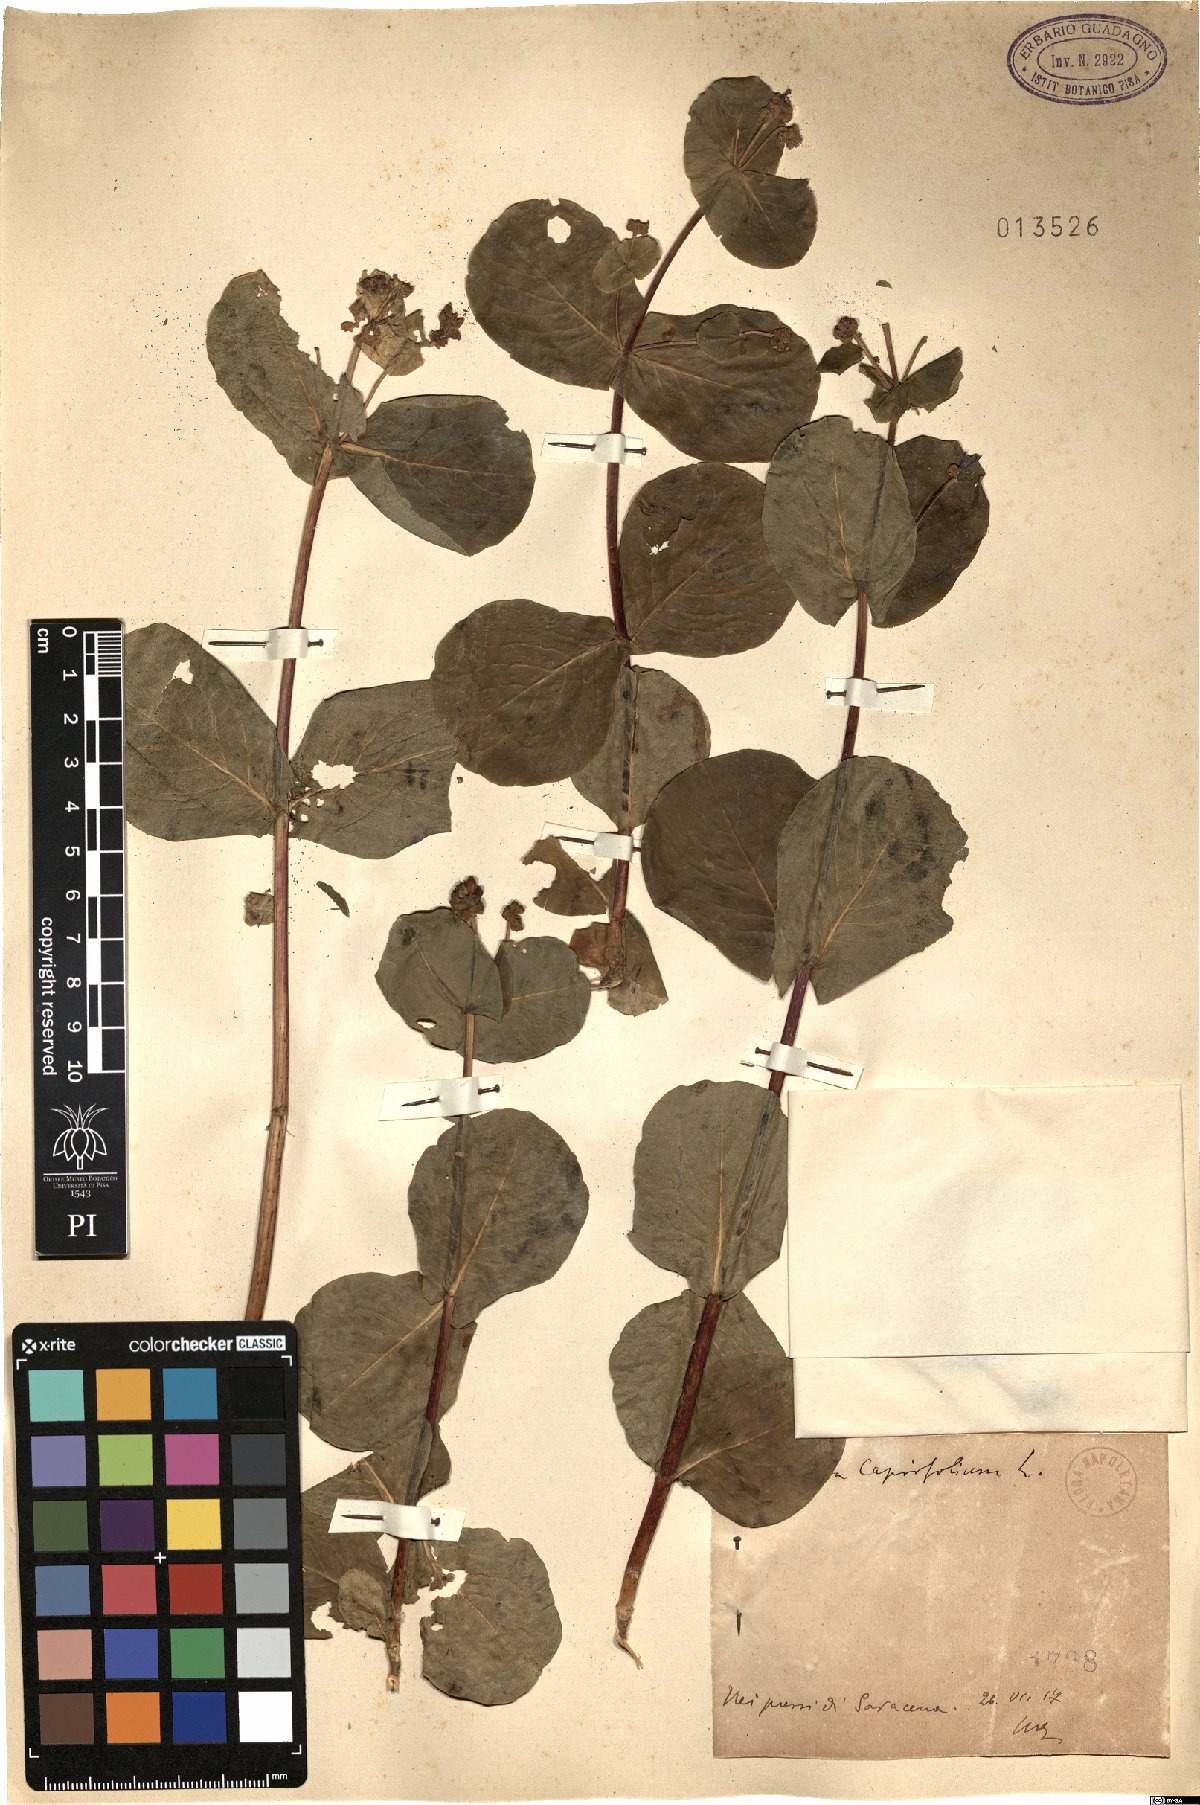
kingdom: Plantae
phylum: Tracheophyta
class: Magnoliopsida
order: Dipsacales
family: Caprifoliaceae
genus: Lonicera
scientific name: Lonicera caprifolium
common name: Perfoliate honeysuckle
